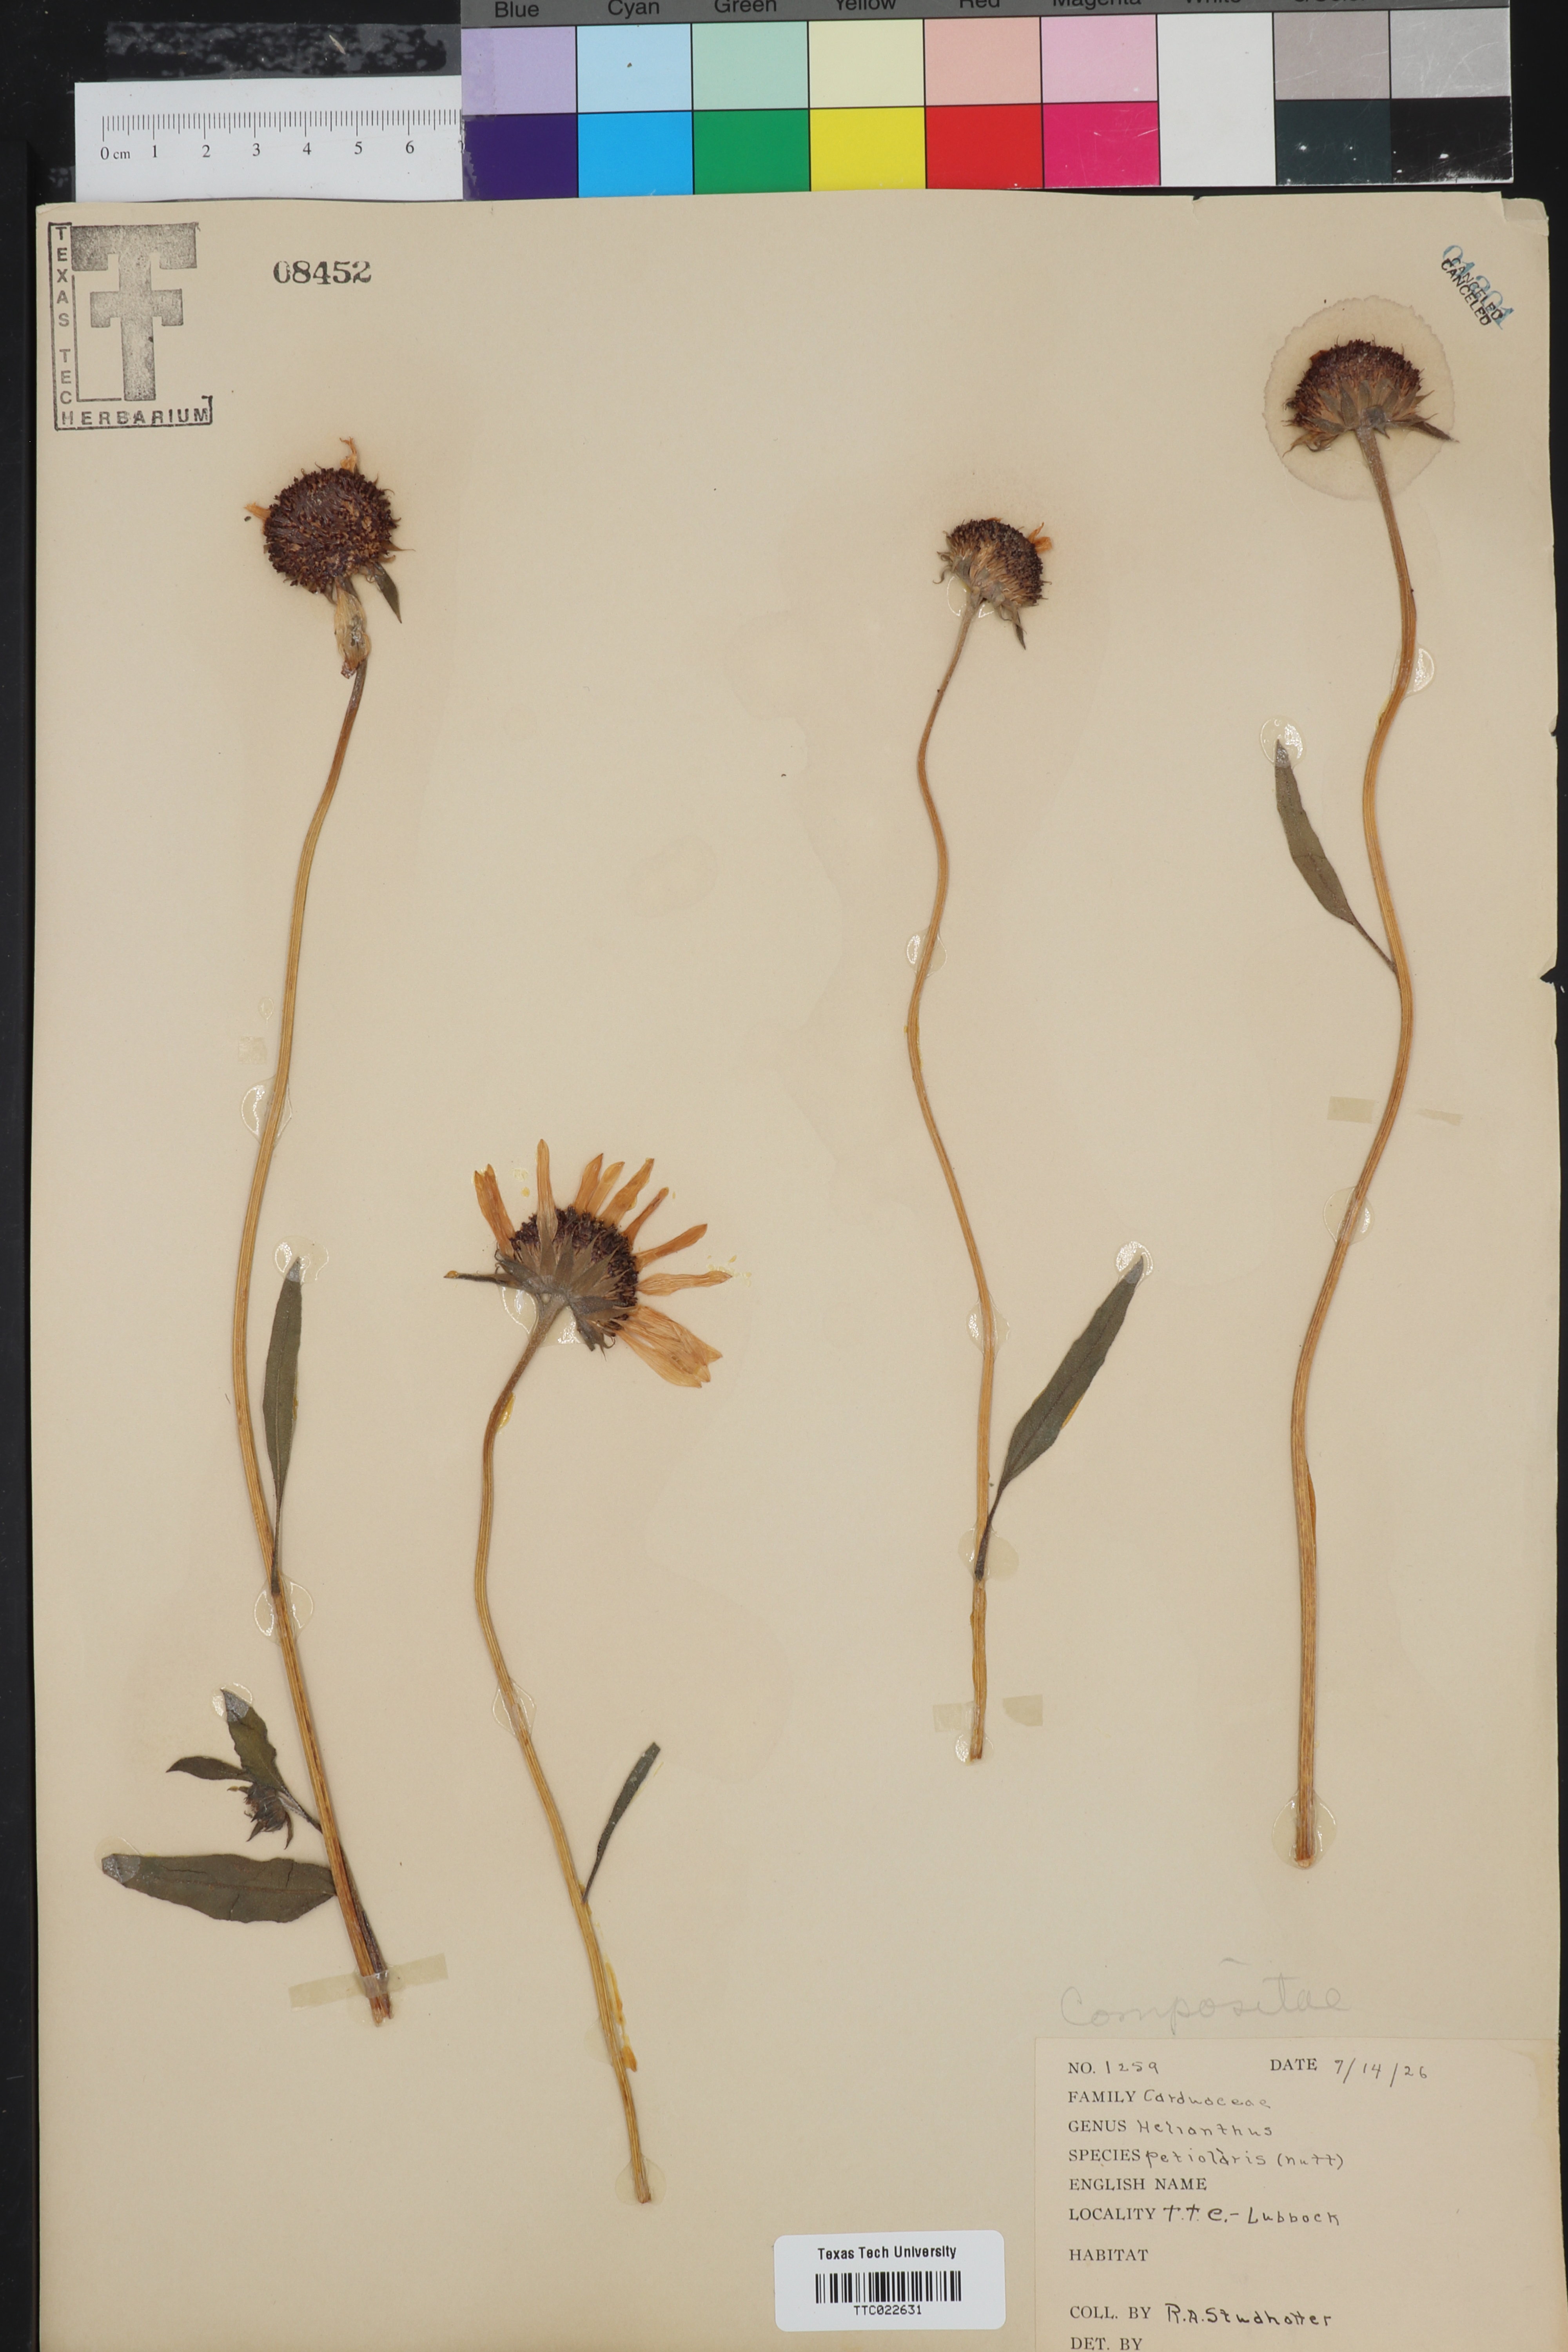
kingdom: Plantae
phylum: Tracheophyta
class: Magnoliopsida
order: Asterales
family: Asteraceae
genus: Helianthus
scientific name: Helianthus petiolaris
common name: Lesser sunflower
